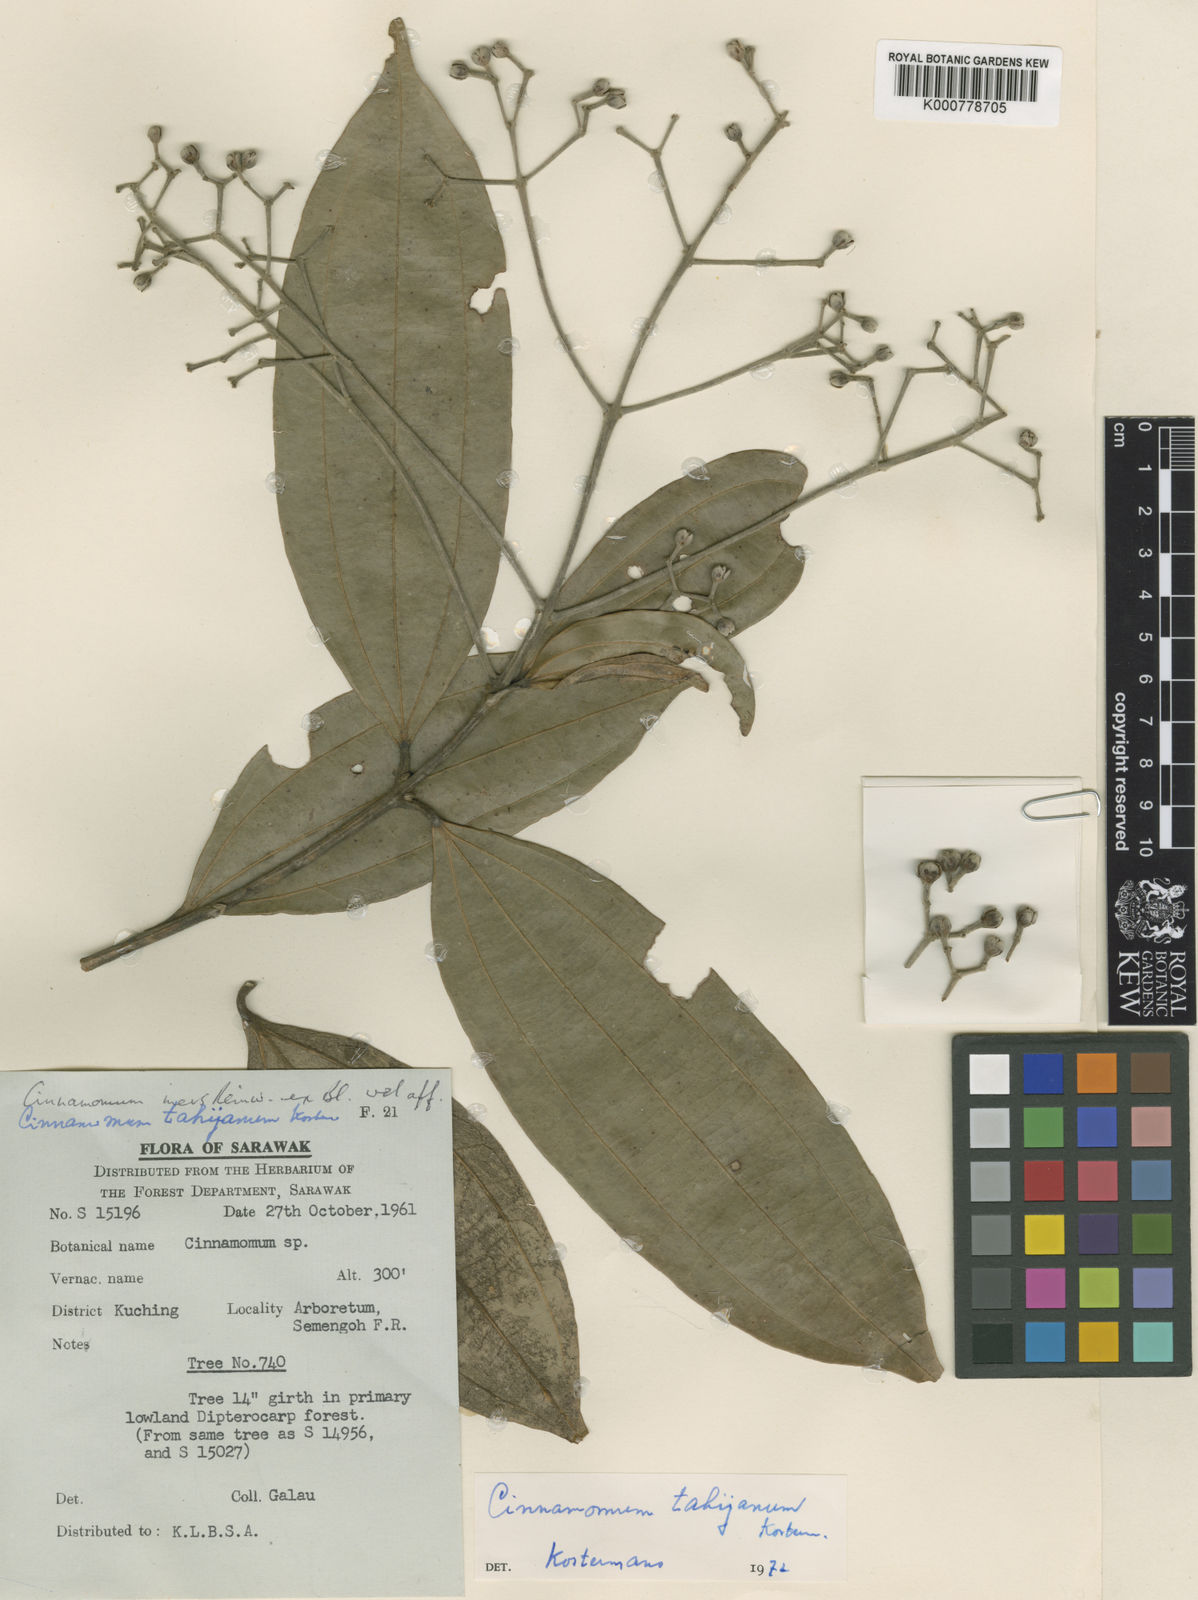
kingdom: Plantae
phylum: Tracheophyta
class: Magnoliopsida
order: Laurales
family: Lauraceae
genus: Cinnamomum
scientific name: Cinnamomum tahijanum
